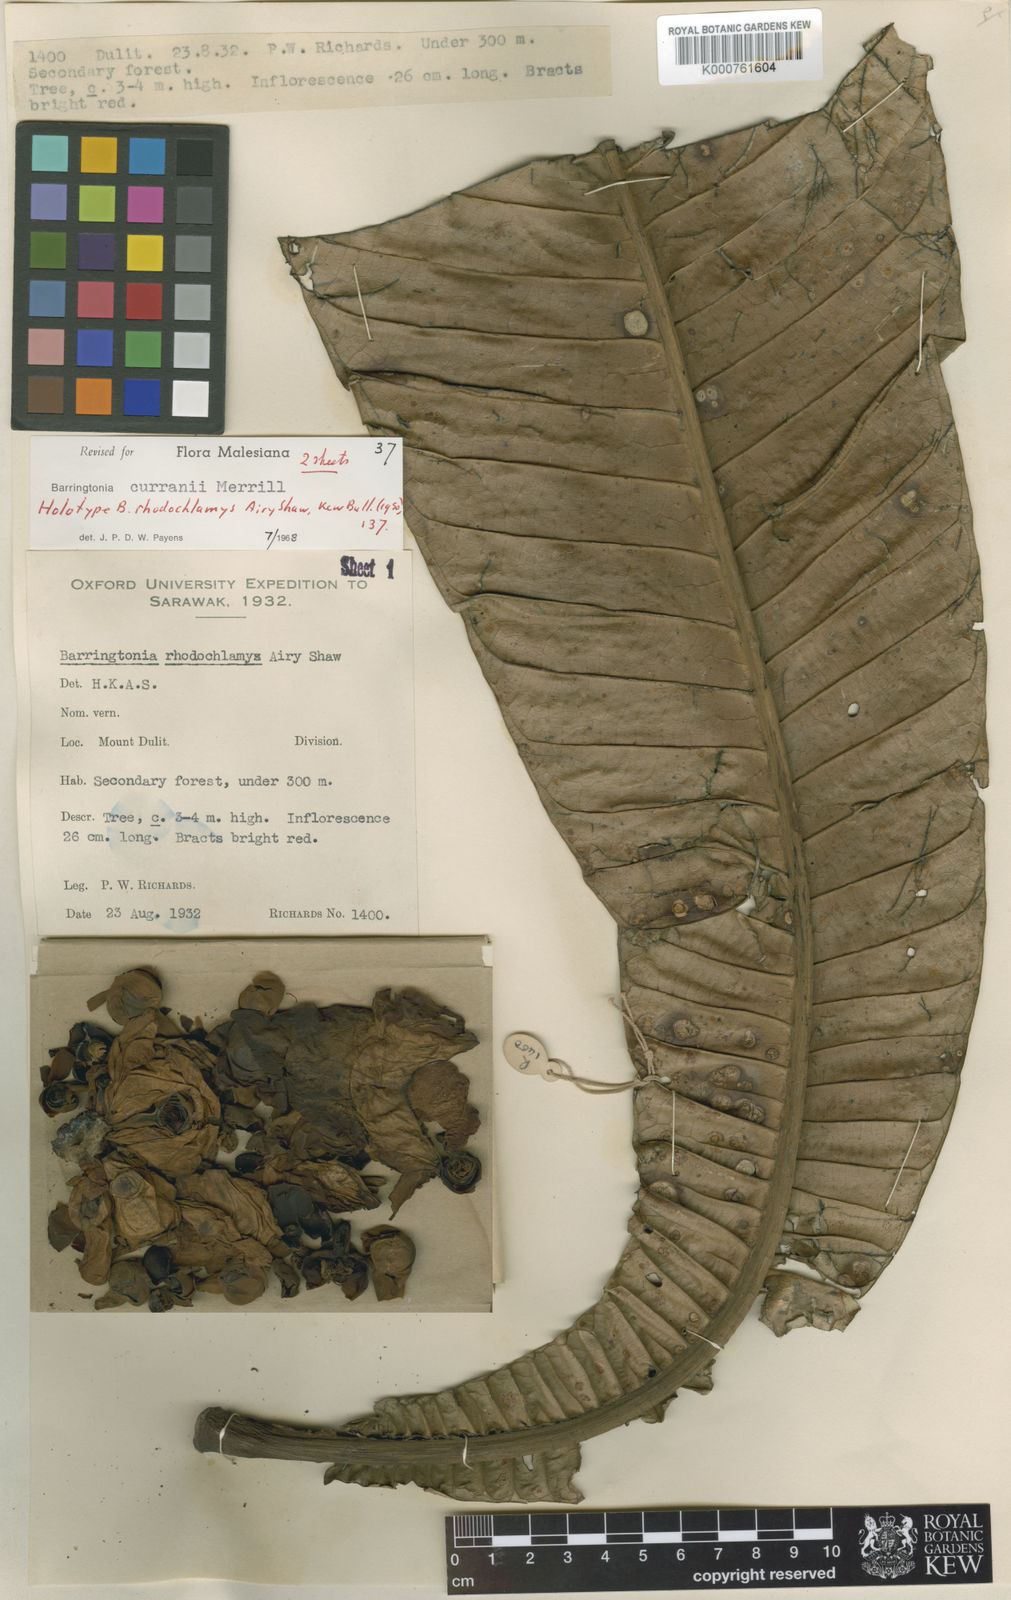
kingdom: Plantae
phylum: Tracheophyta
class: Magnoliopsida
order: Ericales
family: Lecythidaceae
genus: Barringtonia
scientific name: Barringtonia curranii
